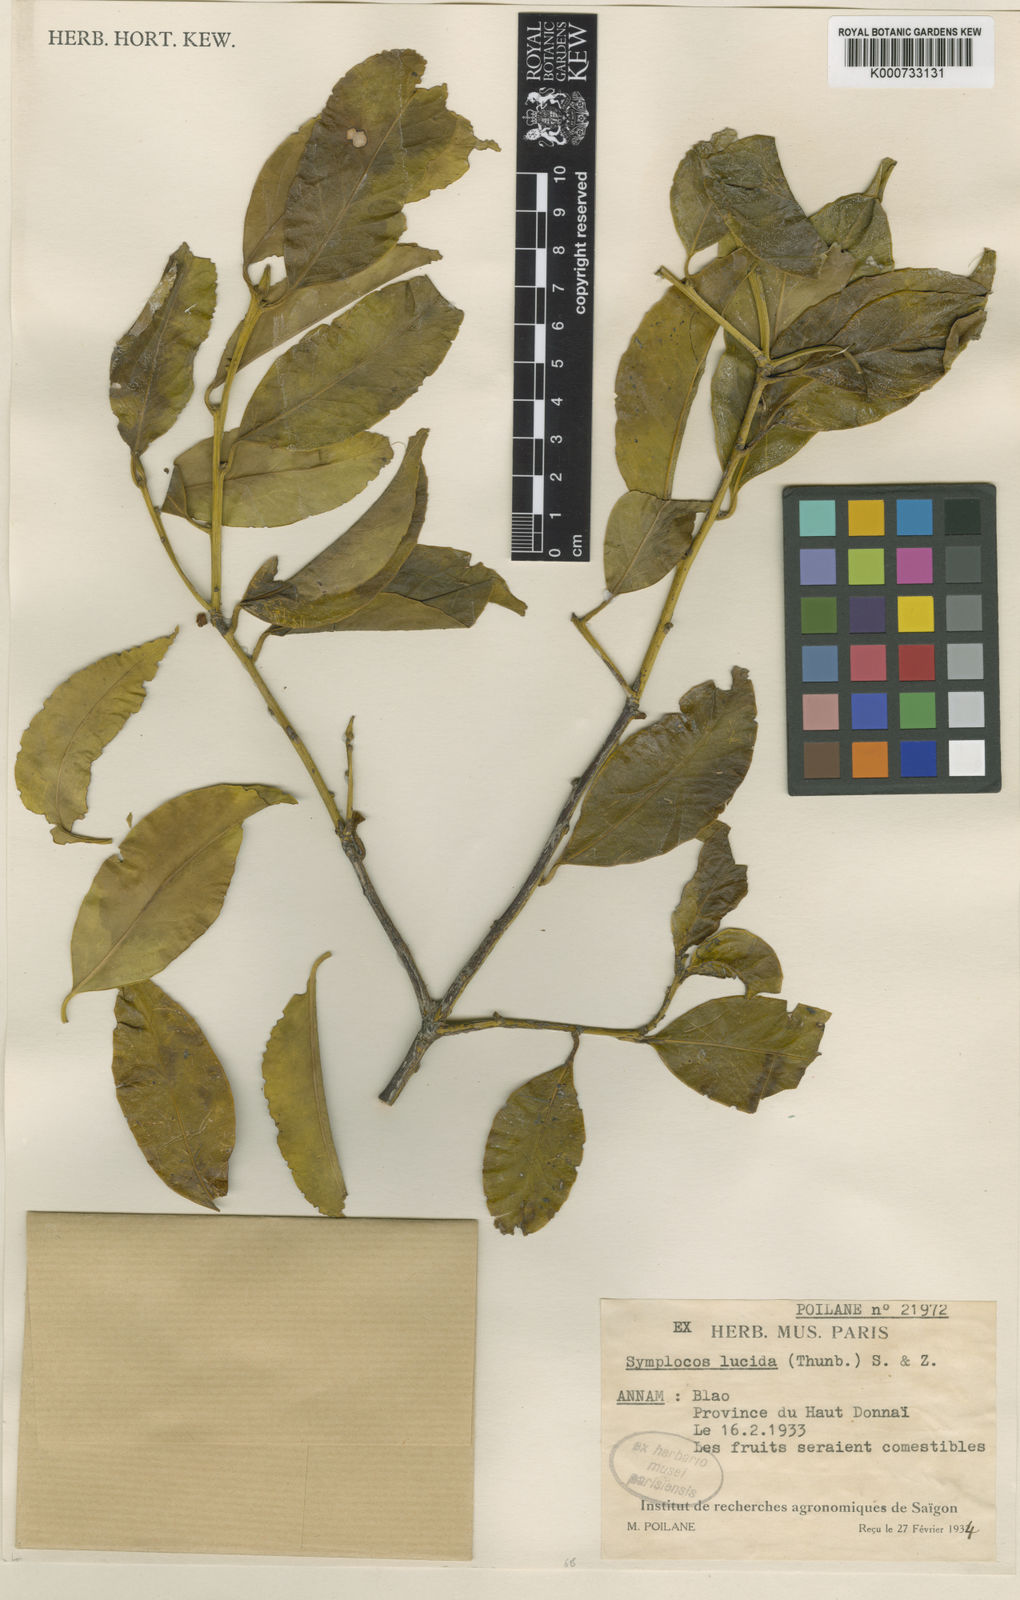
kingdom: Plantae
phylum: Tracheophyta
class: Magnoliopsida
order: Ericales
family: Symplocaceae
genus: Symplocos
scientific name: Symplocos
